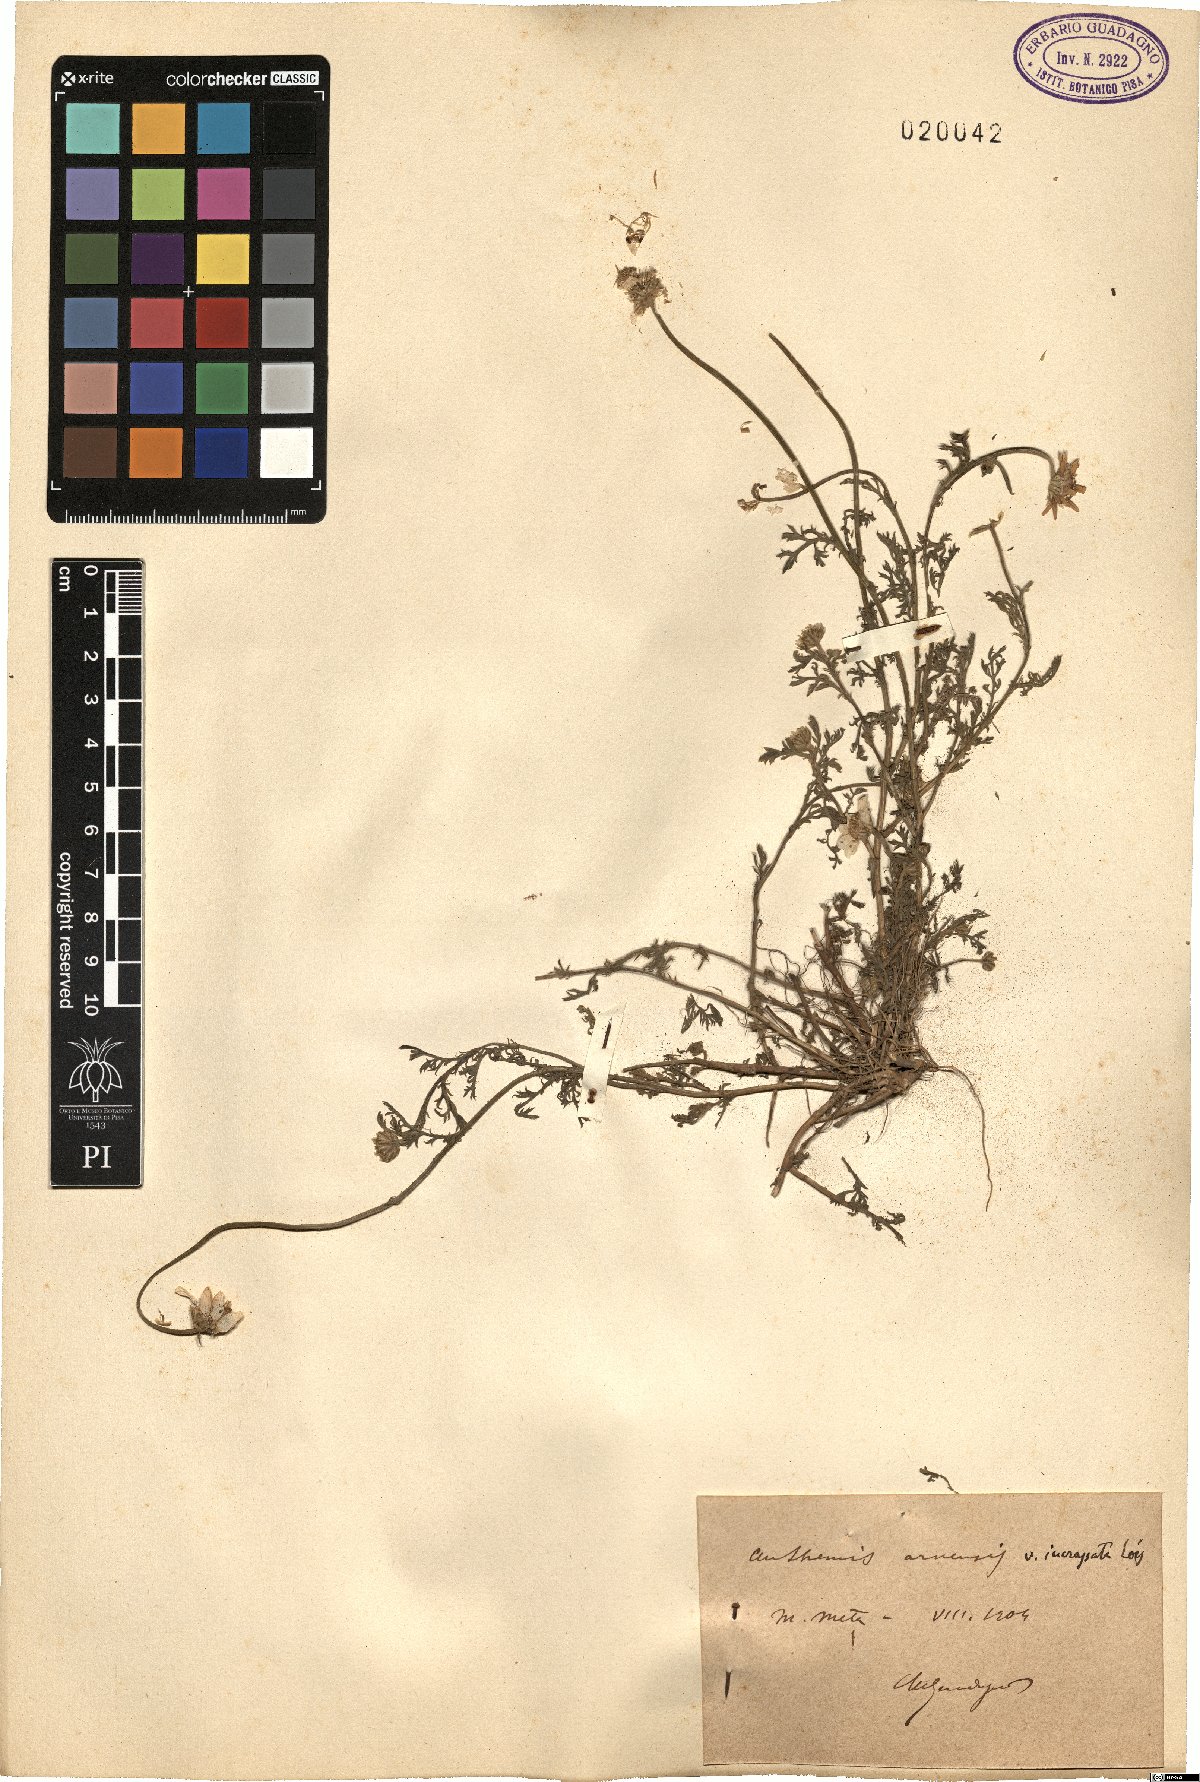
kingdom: Plantae
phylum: Tracheophyta
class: Magnoliopsida
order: Asterales
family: Asteraceae
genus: Anthemis
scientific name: Anthemis arvensis
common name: Corn chamomile
